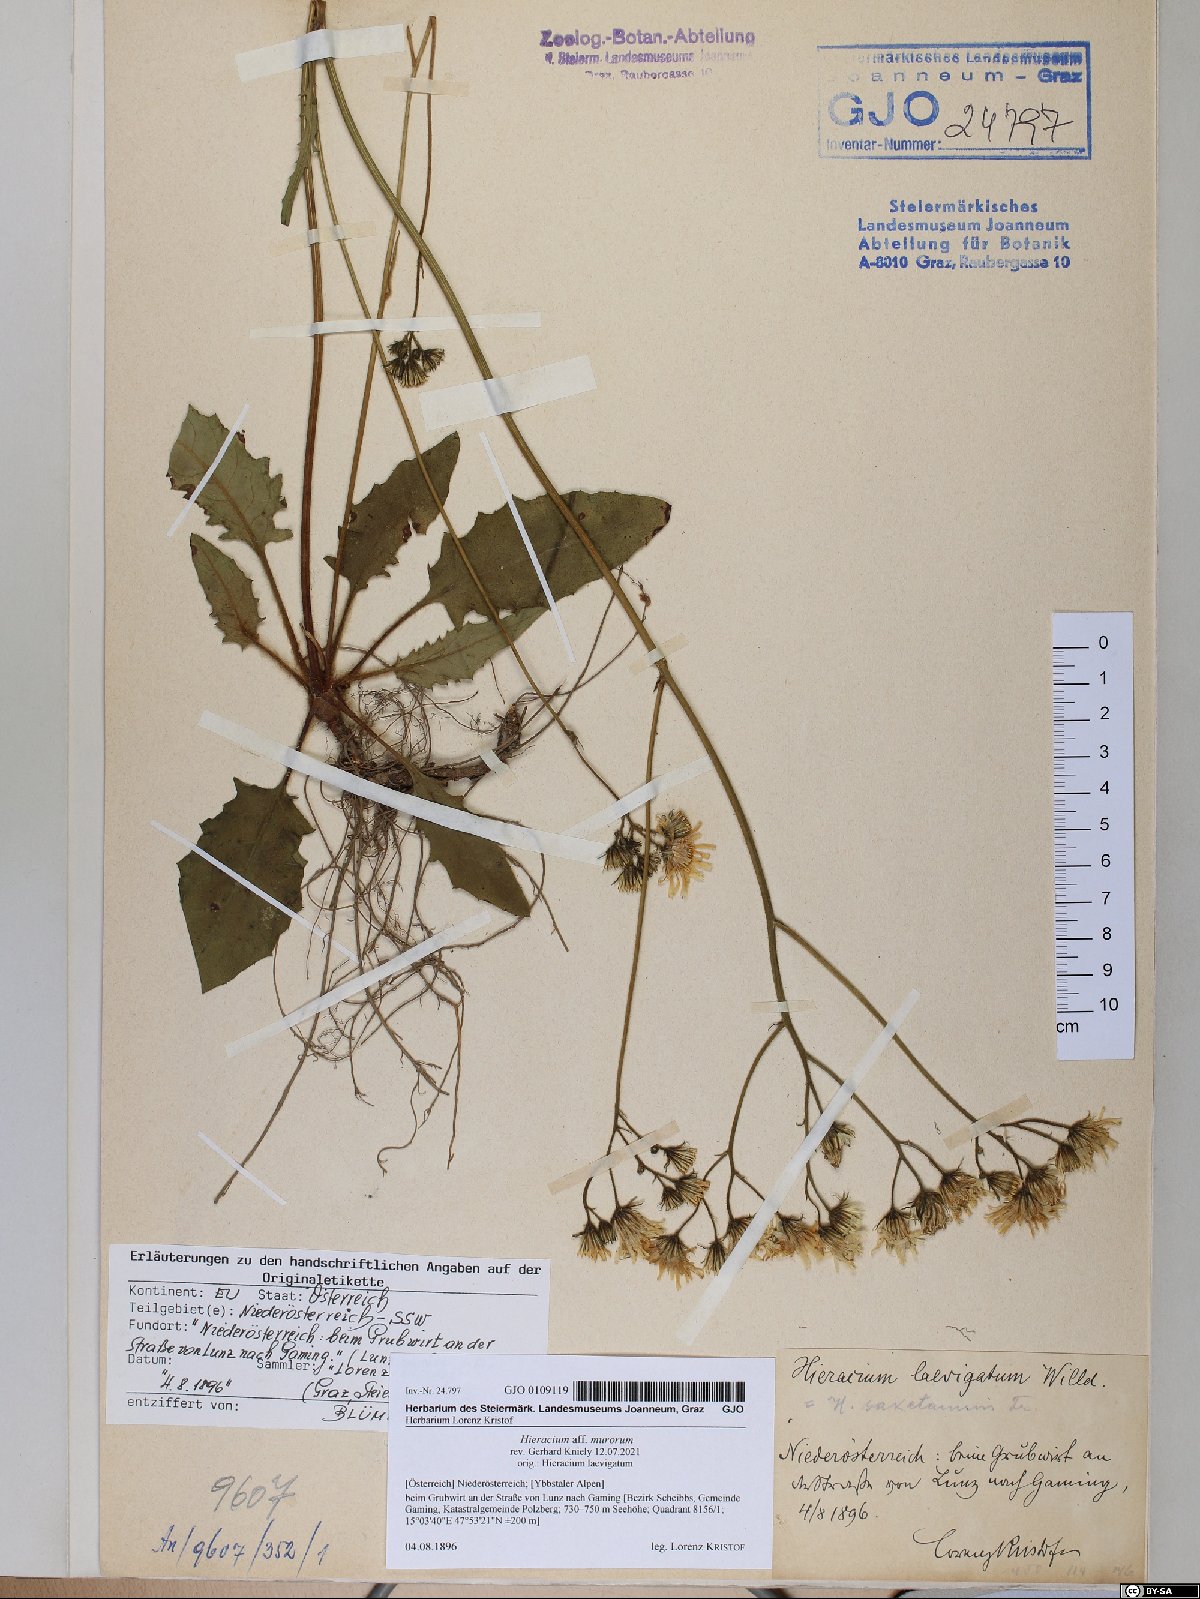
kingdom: Plantae
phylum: Tracheophyta
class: Magnoliopsida
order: Asterales
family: Asteraceae
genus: Hieracium
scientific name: Hieracium murorum
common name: Wall hawkweed
